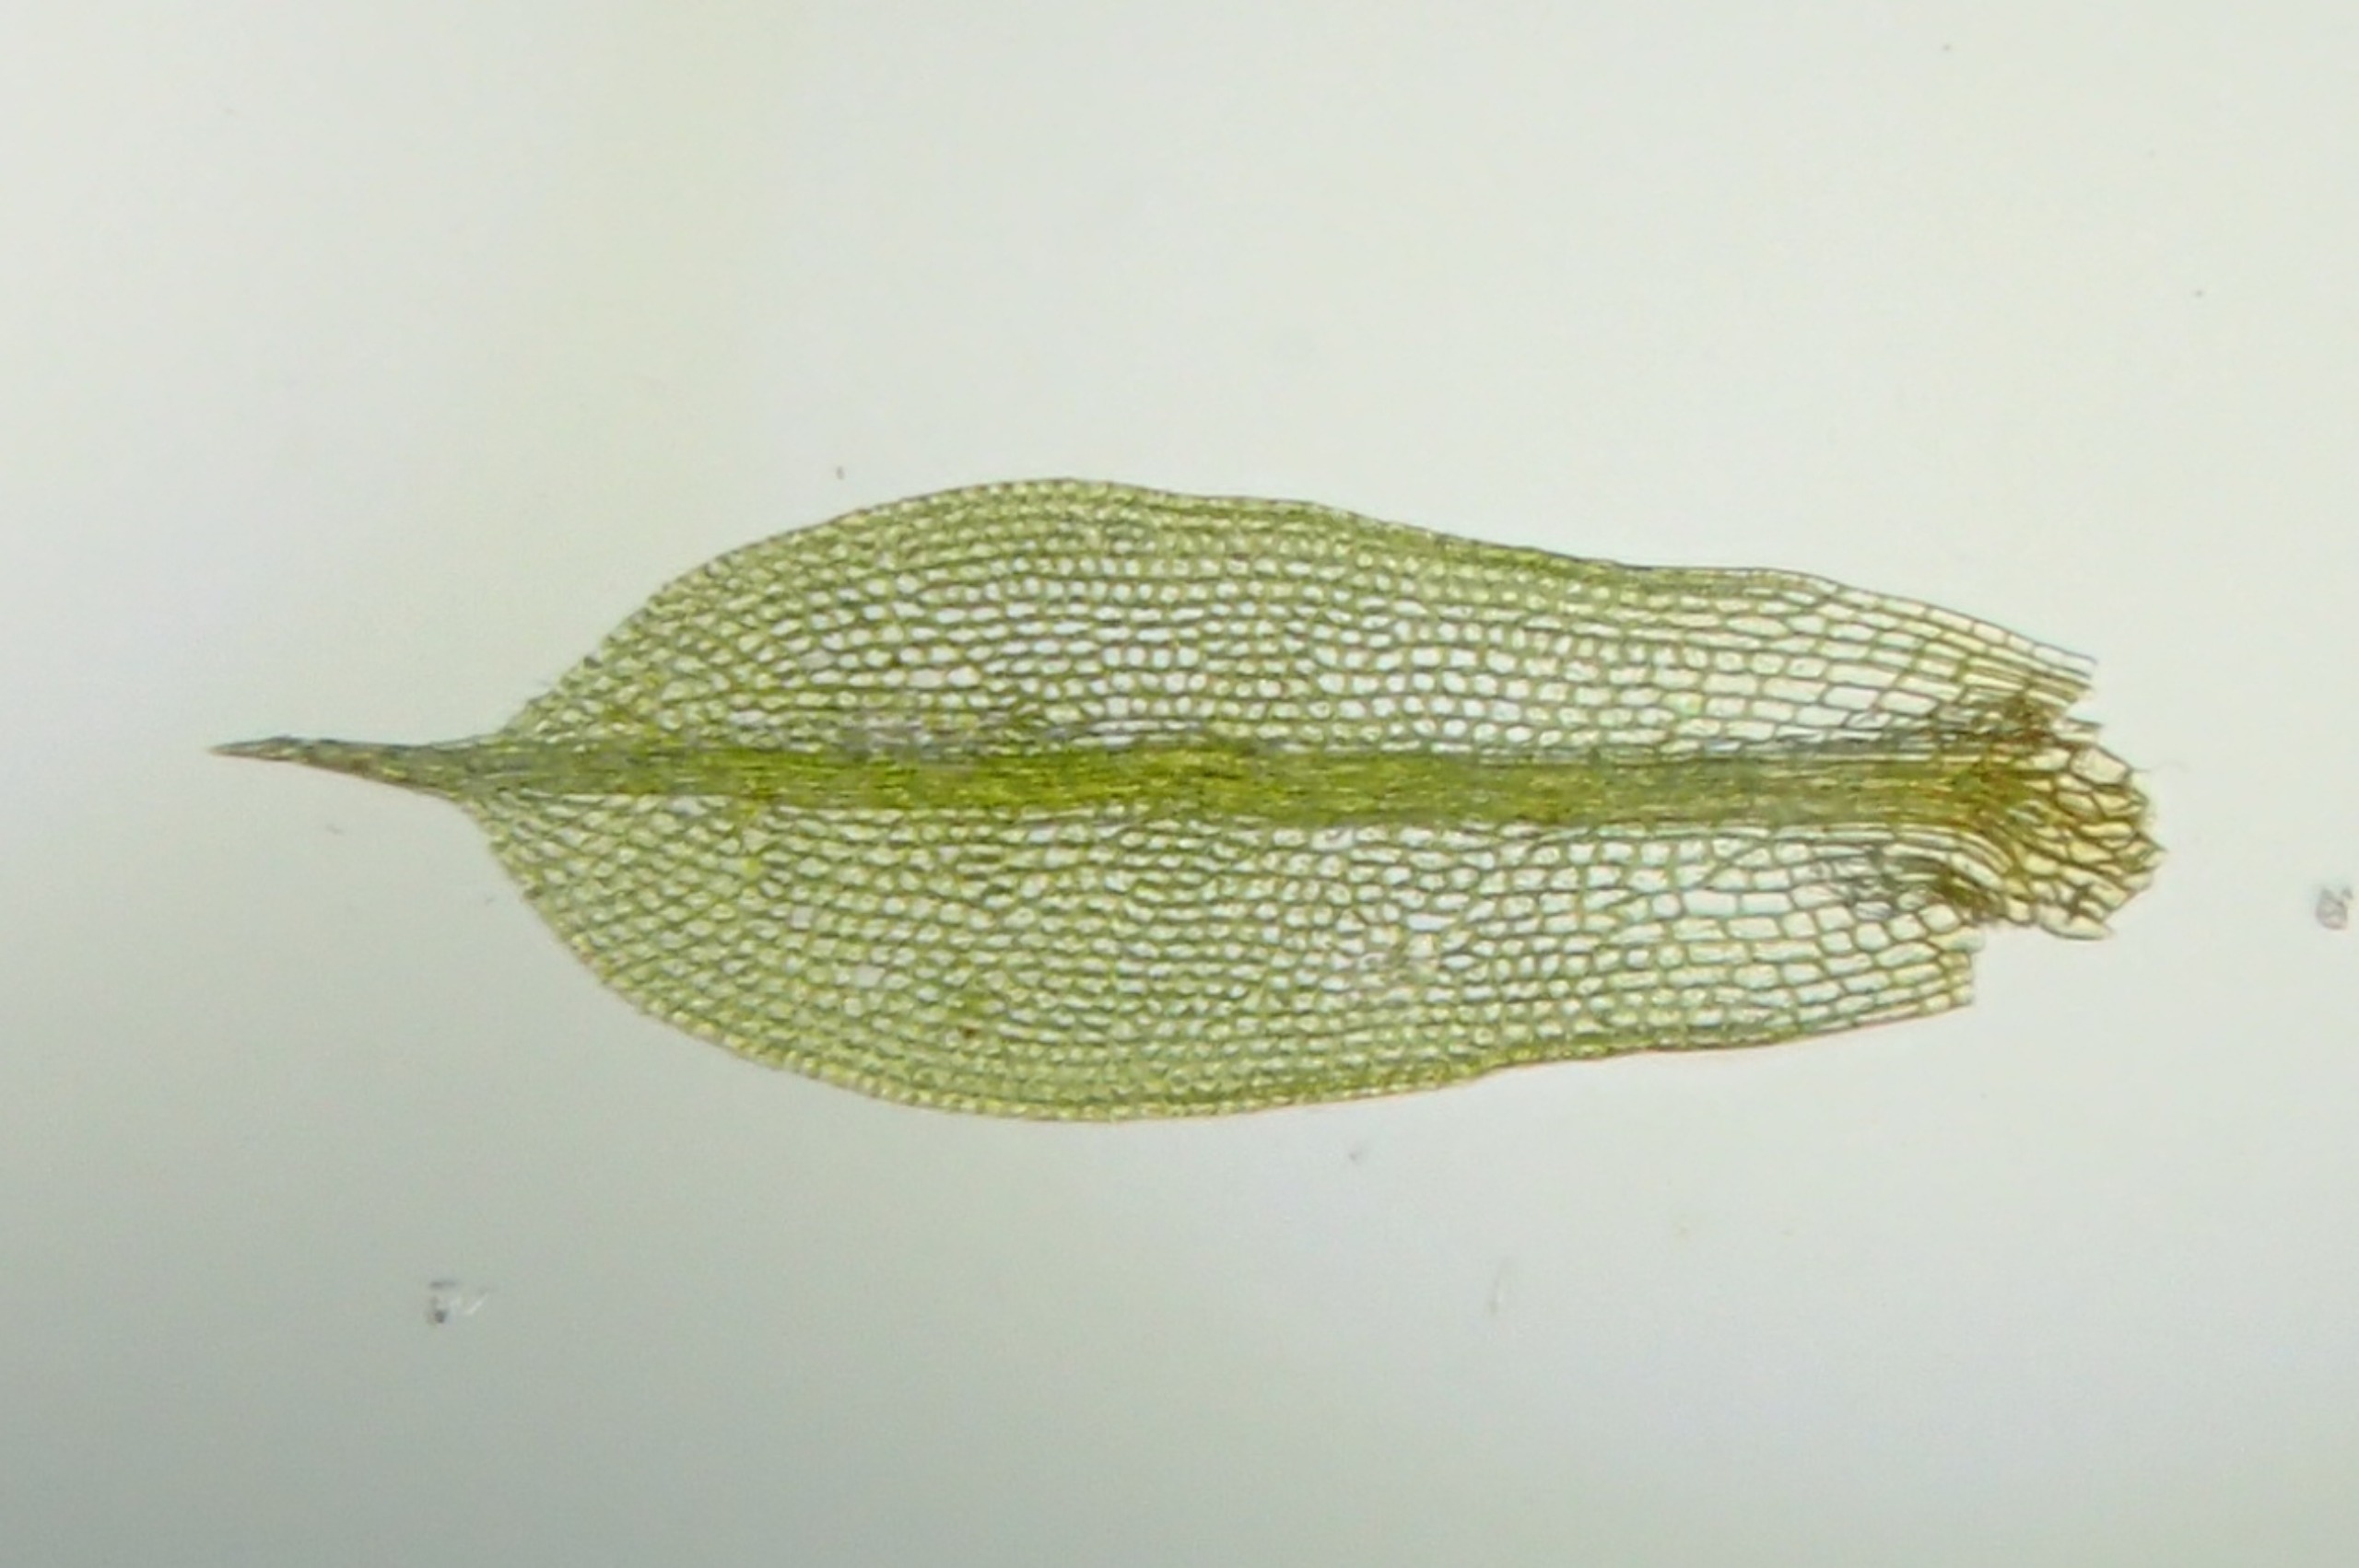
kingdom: Plantae
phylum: Bryophyta
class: Bryopsida
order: Pottiales
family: Pottiaceae
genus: Tortula
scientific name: Tortula caucasica
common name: Mark-bægermos
